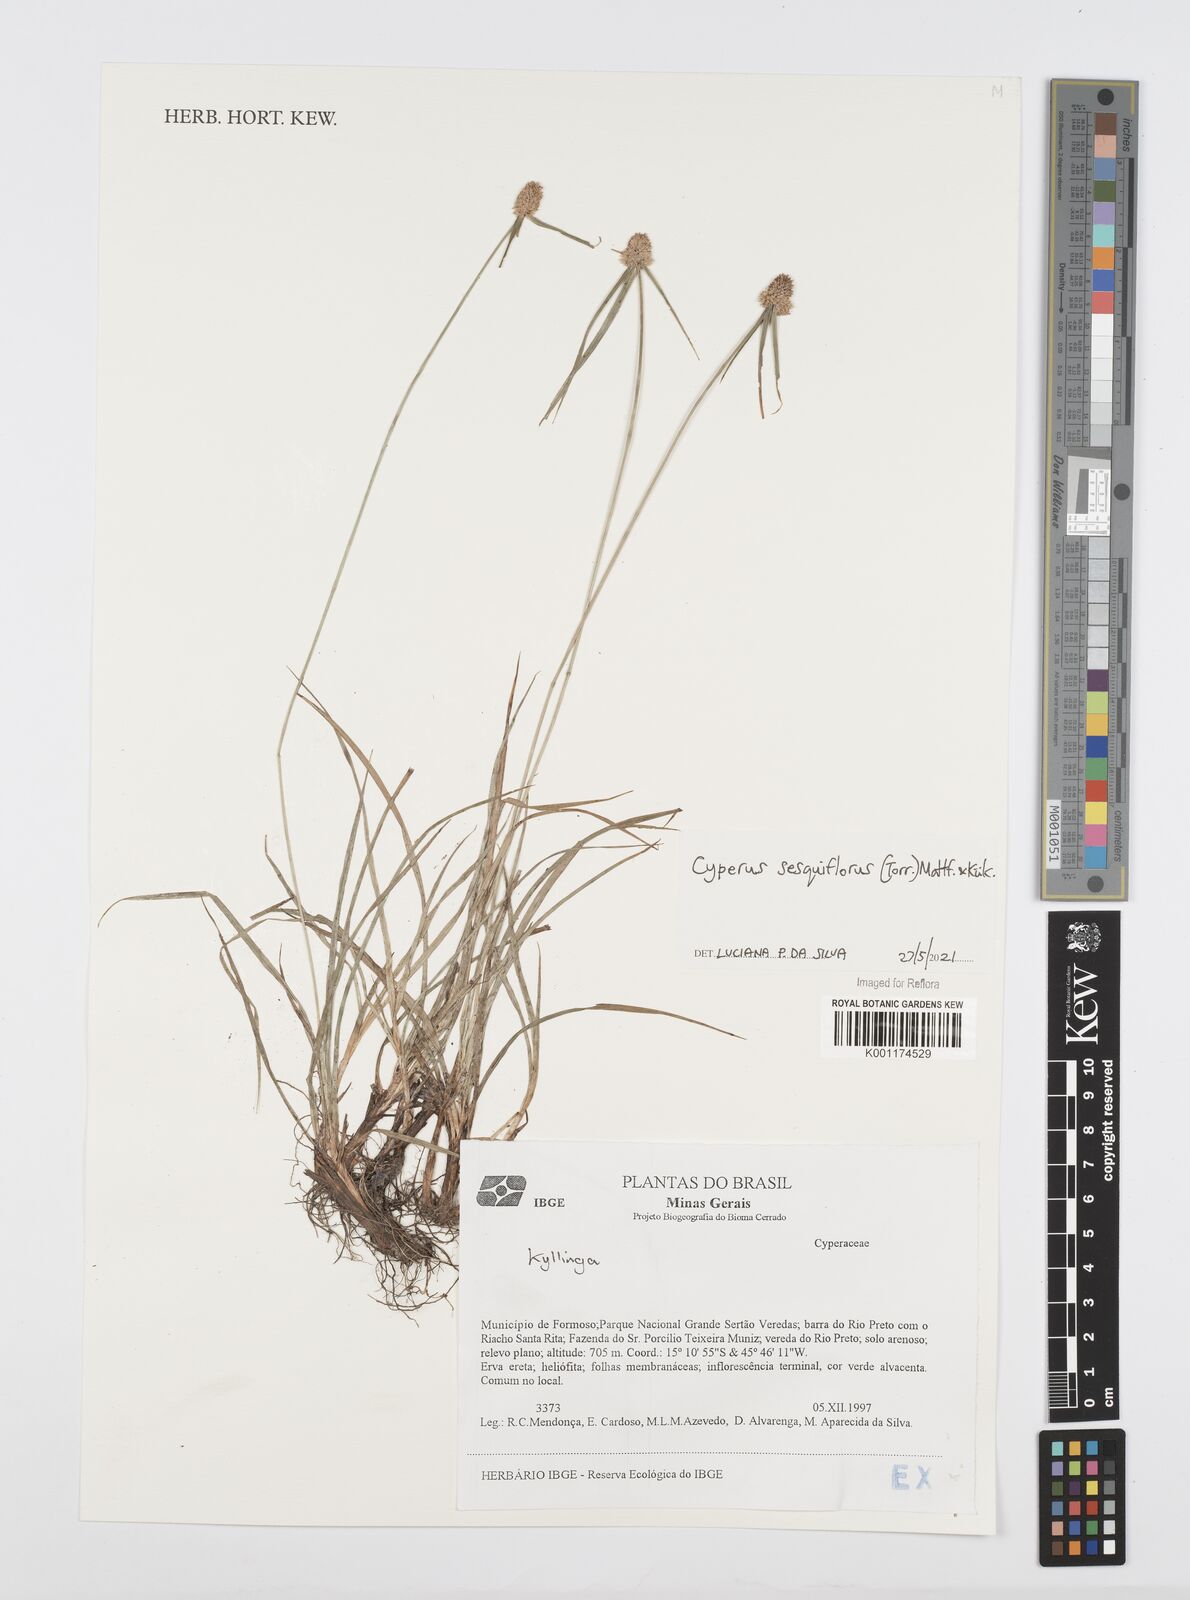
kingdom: Plantae
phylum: Tracheophyta
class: Liliopsida
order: Poales
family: Cyperaceae
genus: Cyperus
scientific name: Cyperus
